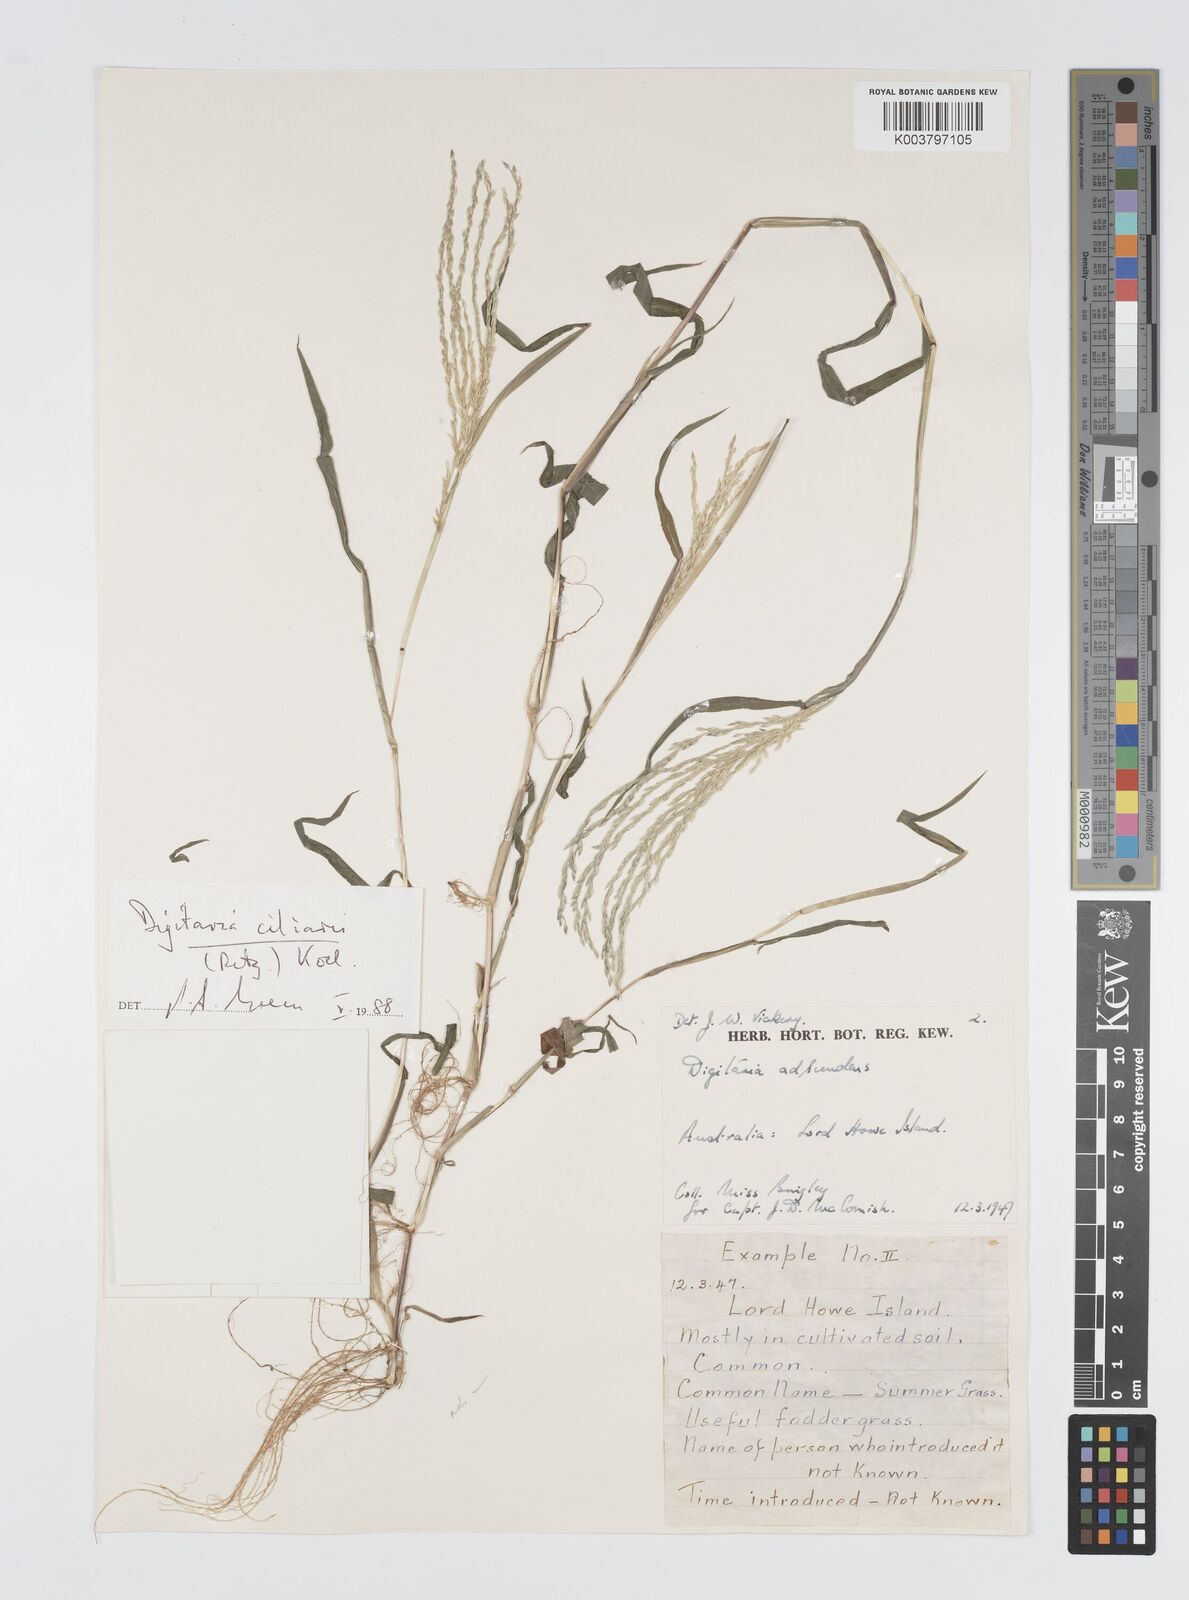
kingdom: Plantae
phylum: Tracheophyta
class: Liliopsida
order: Poales
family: Poaceae
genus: Digitaria
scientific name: Digitaria ciliaris
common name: Tropical finger-grass
